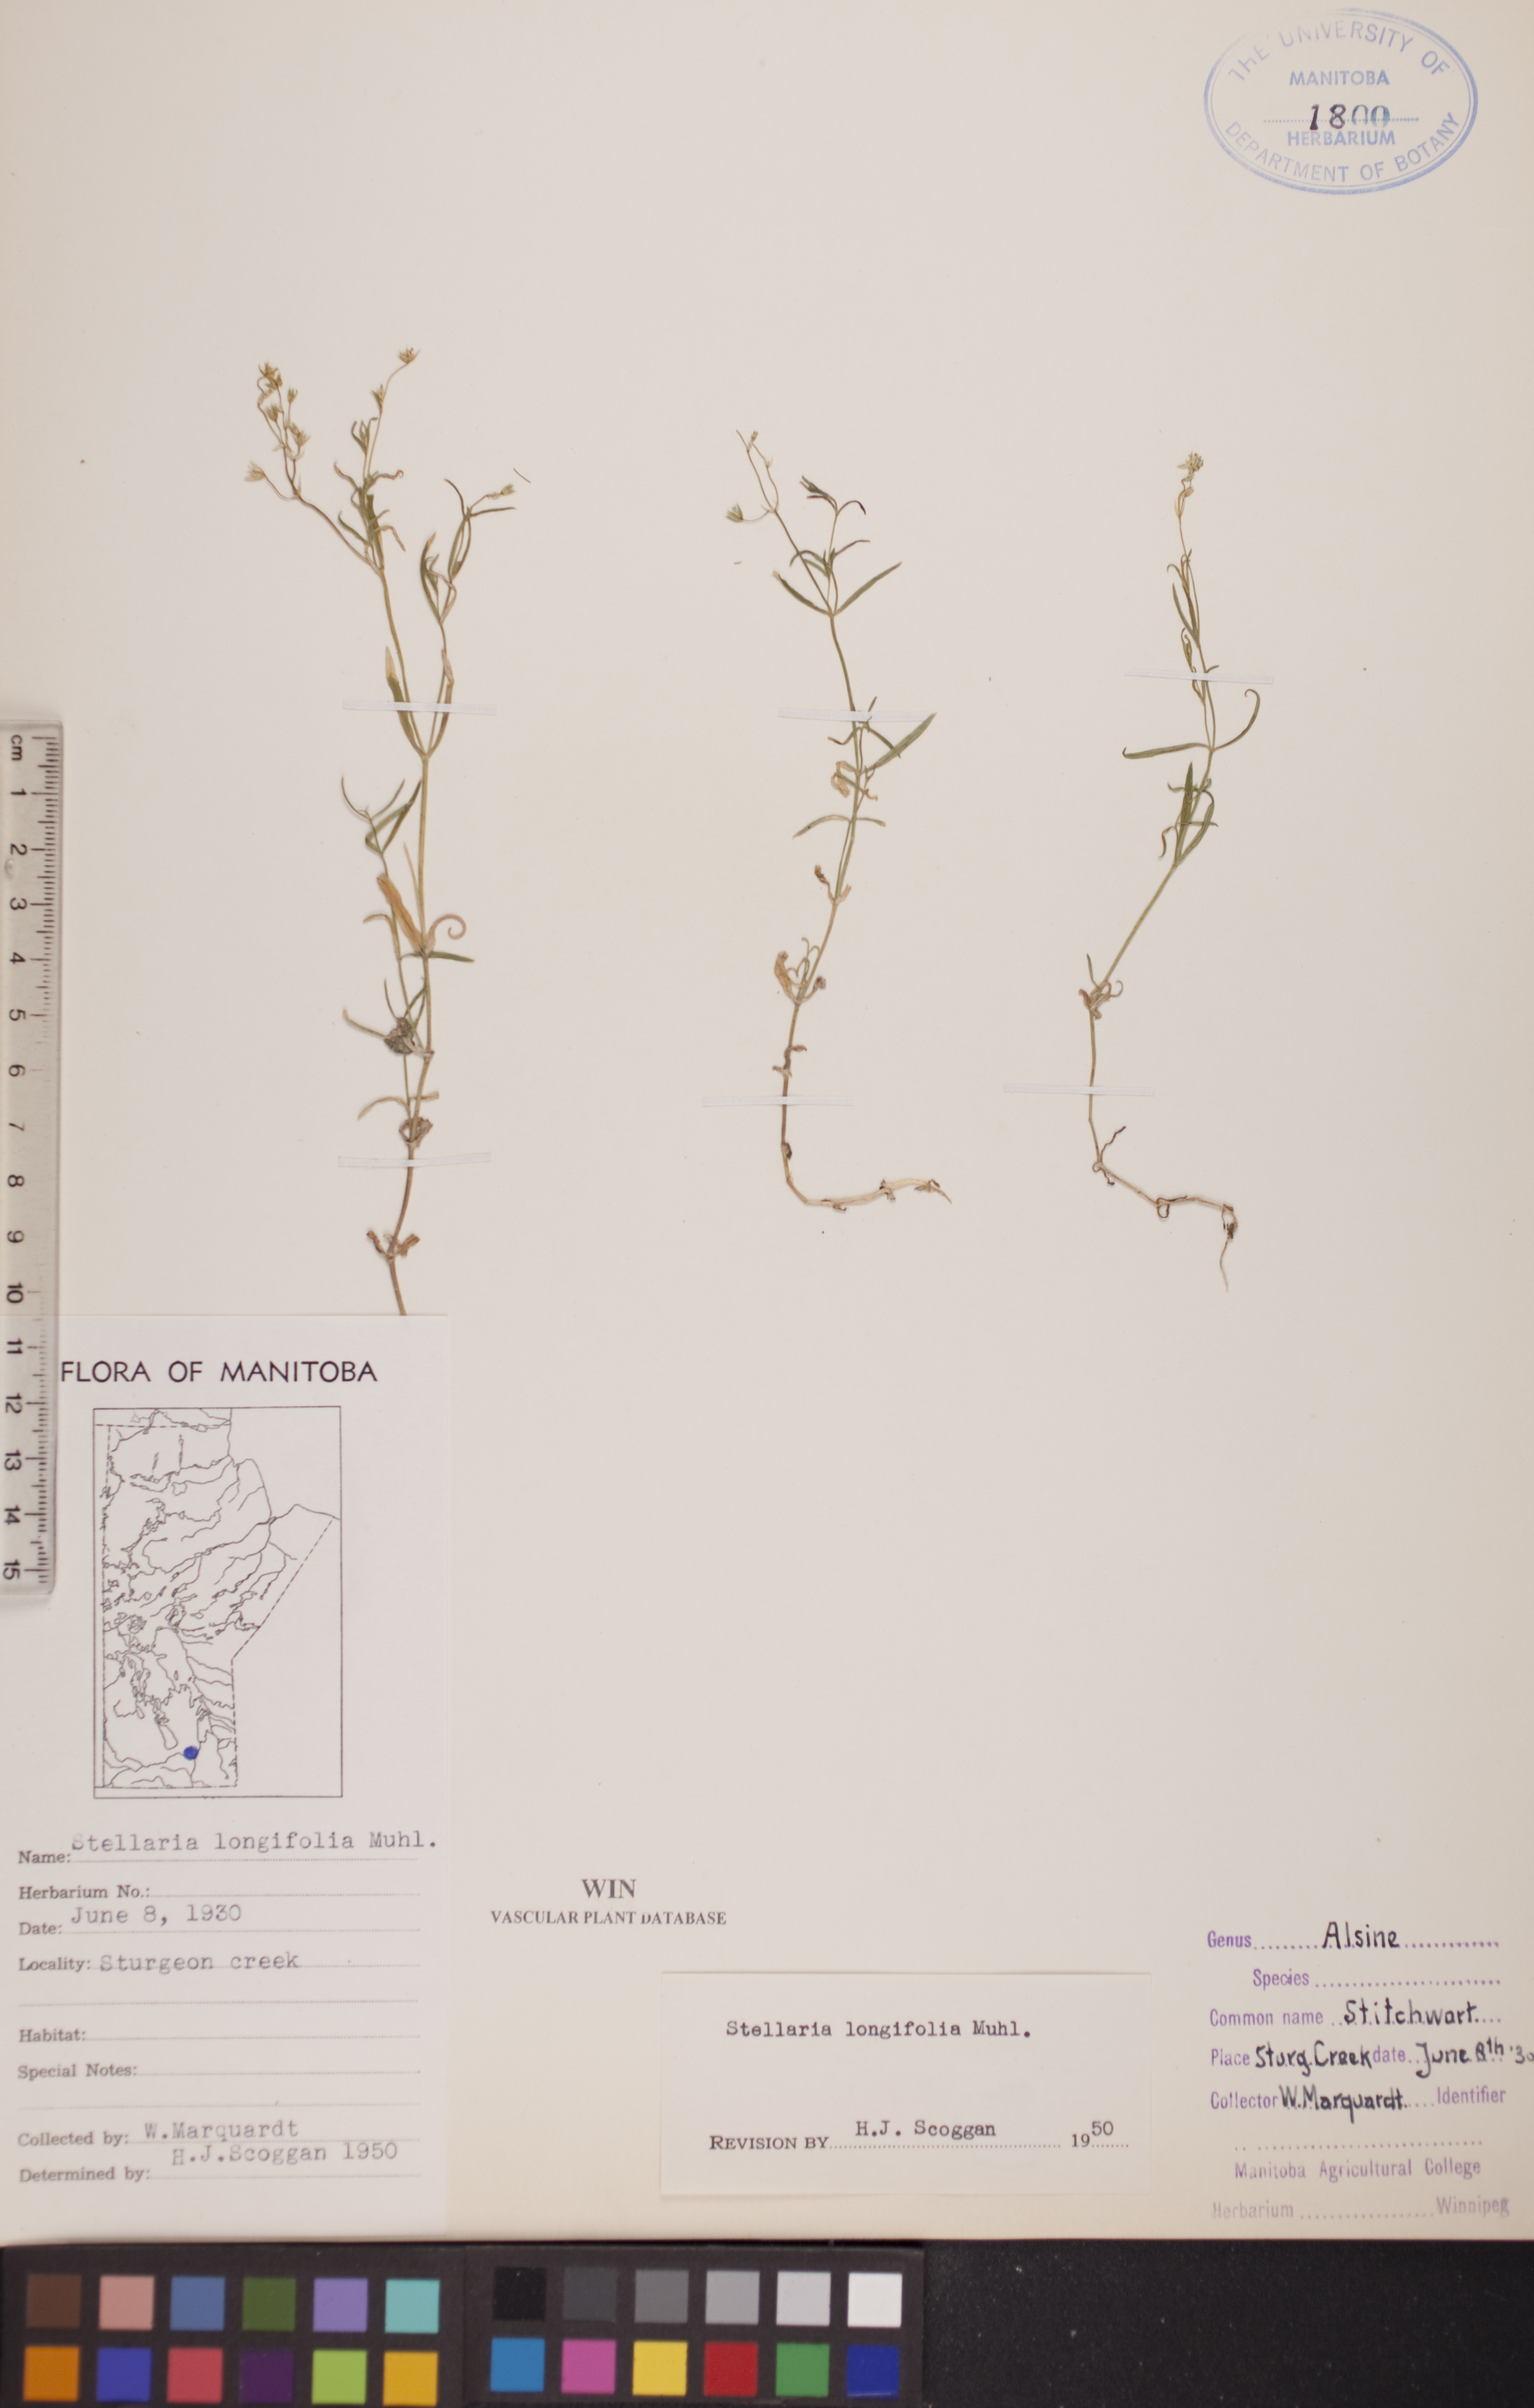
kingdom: Plantae
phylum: Tracheophyta
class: Magnoliopsida
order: Caryophyllales
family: Caryophyllaceae
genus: Stellaria
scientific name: Stellaria longifolia
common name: Long-leaved chickweed
